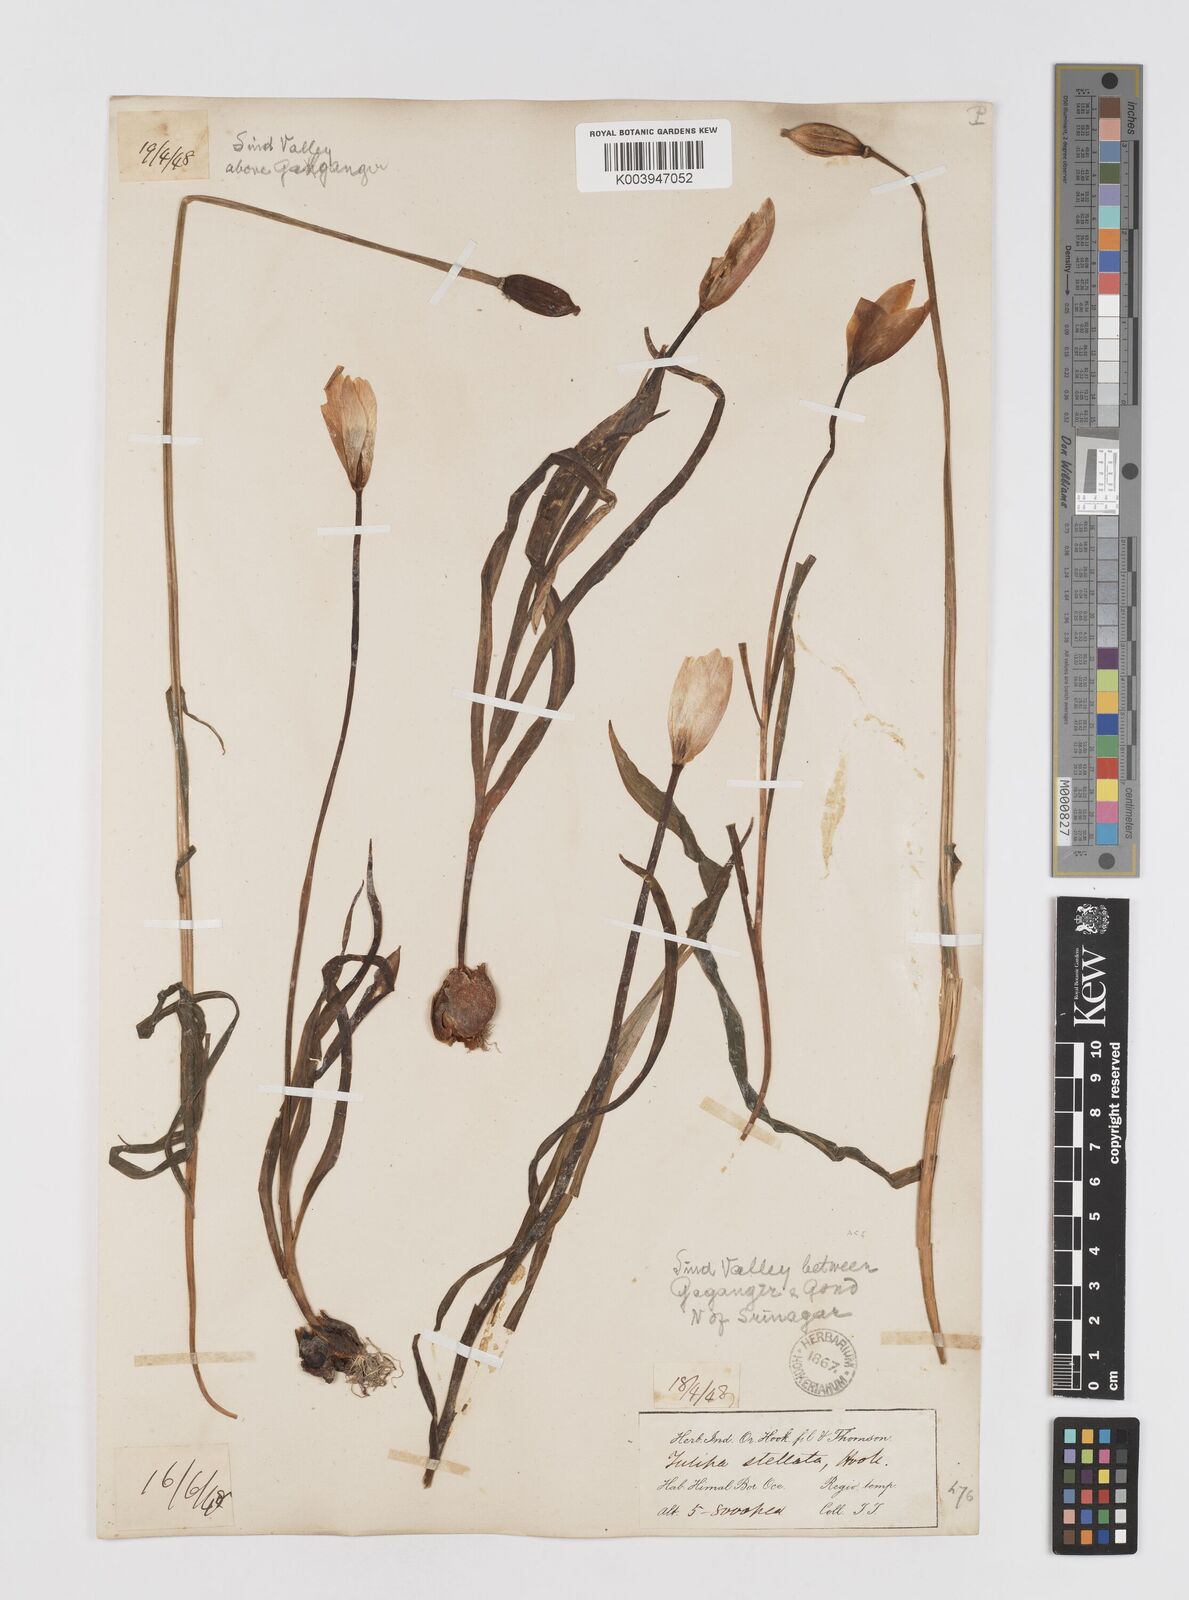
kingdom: Plantae
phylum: Tracheophyta
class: Liliopsida
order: Liliales
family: Liliaceae
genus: Tulipa
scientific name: Tulipa clusiana
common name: Lady tulip
